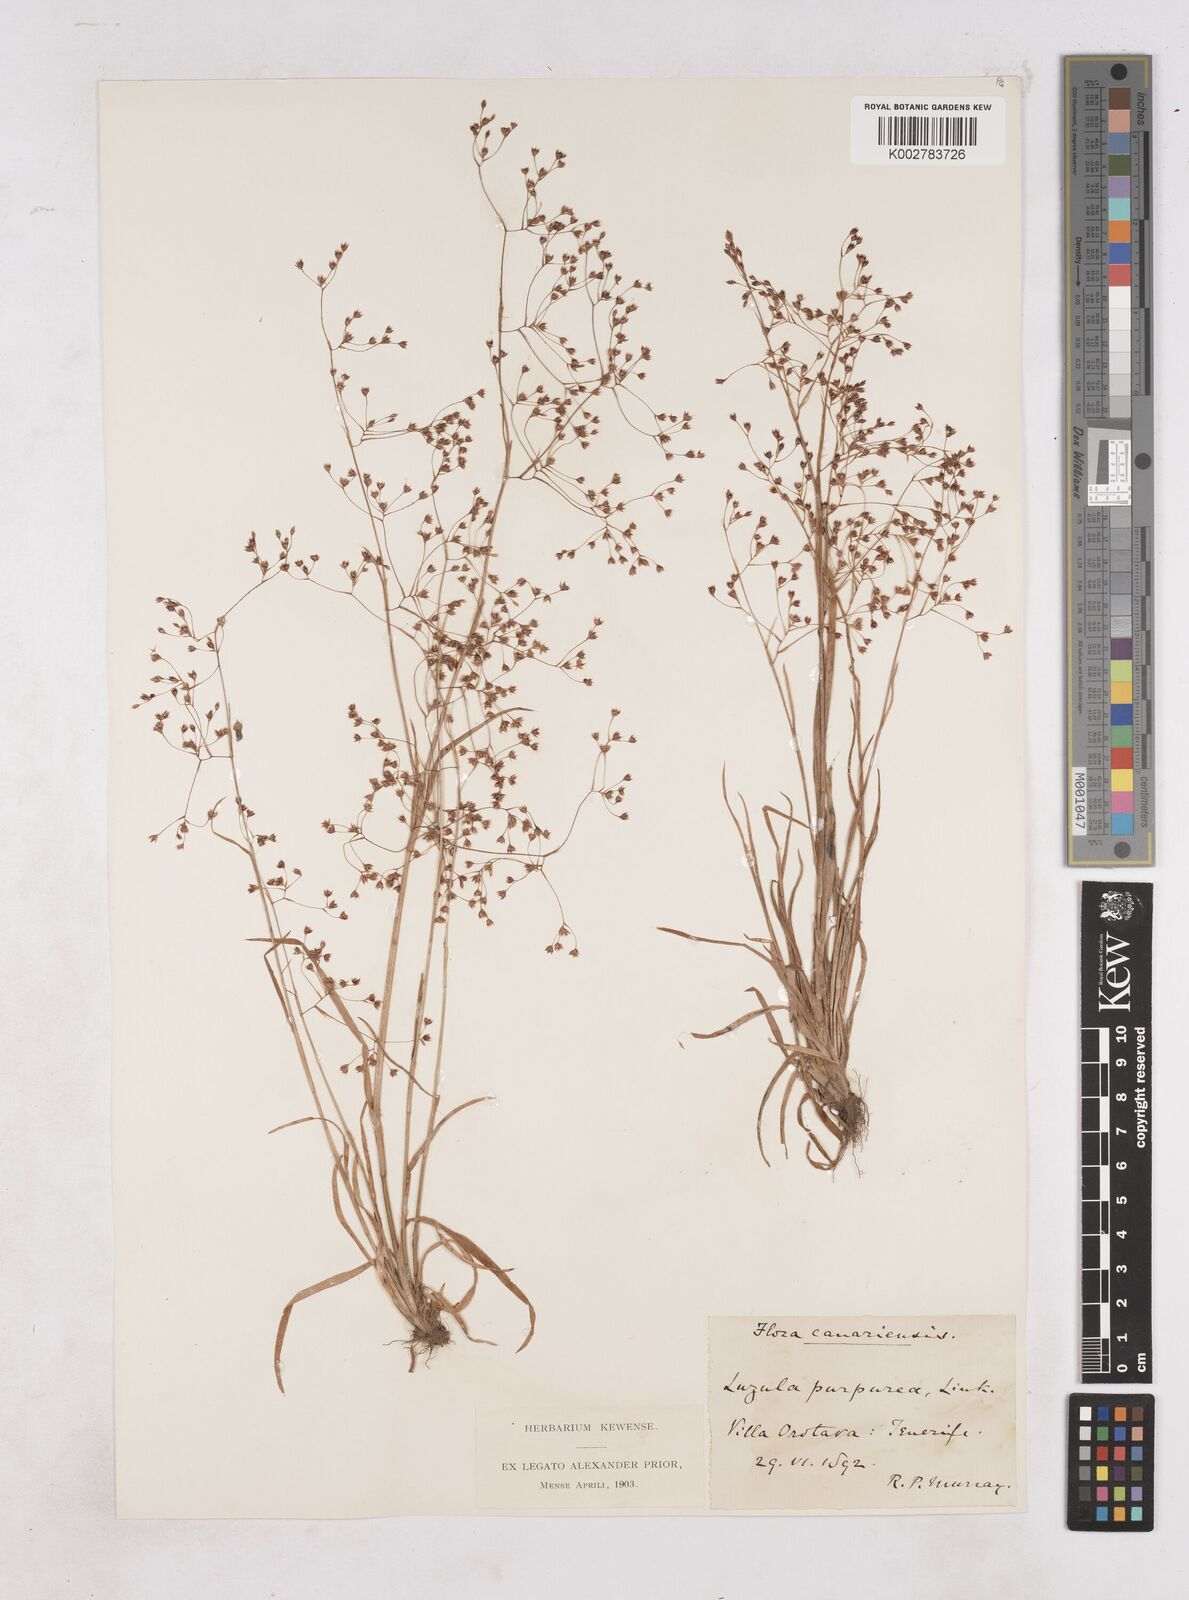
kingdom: Plantae
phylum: Tracheophyta
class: Liliopsida
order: Poales
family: Juncaceae
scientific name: Juncaceae
